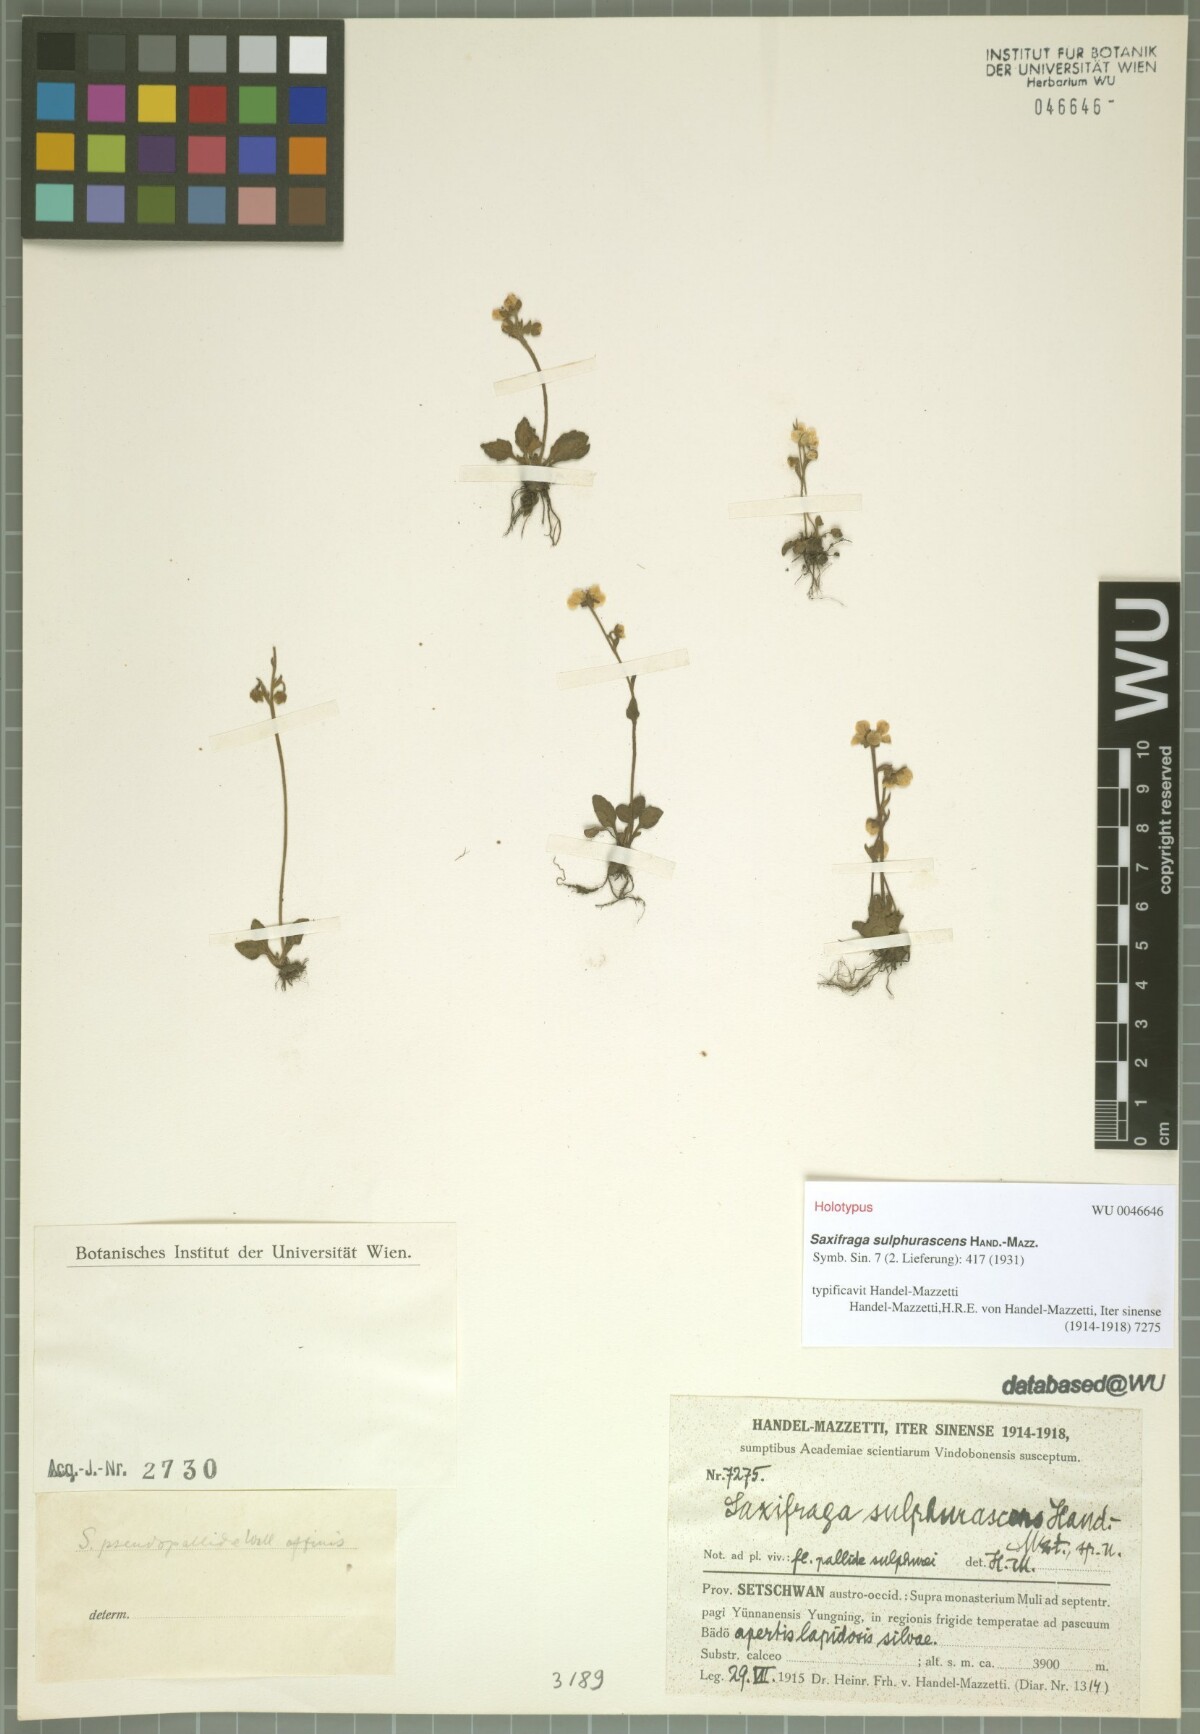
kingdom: Plantae
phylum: Tracheophyta
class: Magnoliopsida
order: Saxifragales
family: Saxifragaceae
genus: Micranthes
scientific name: Micranthes melanocentra
